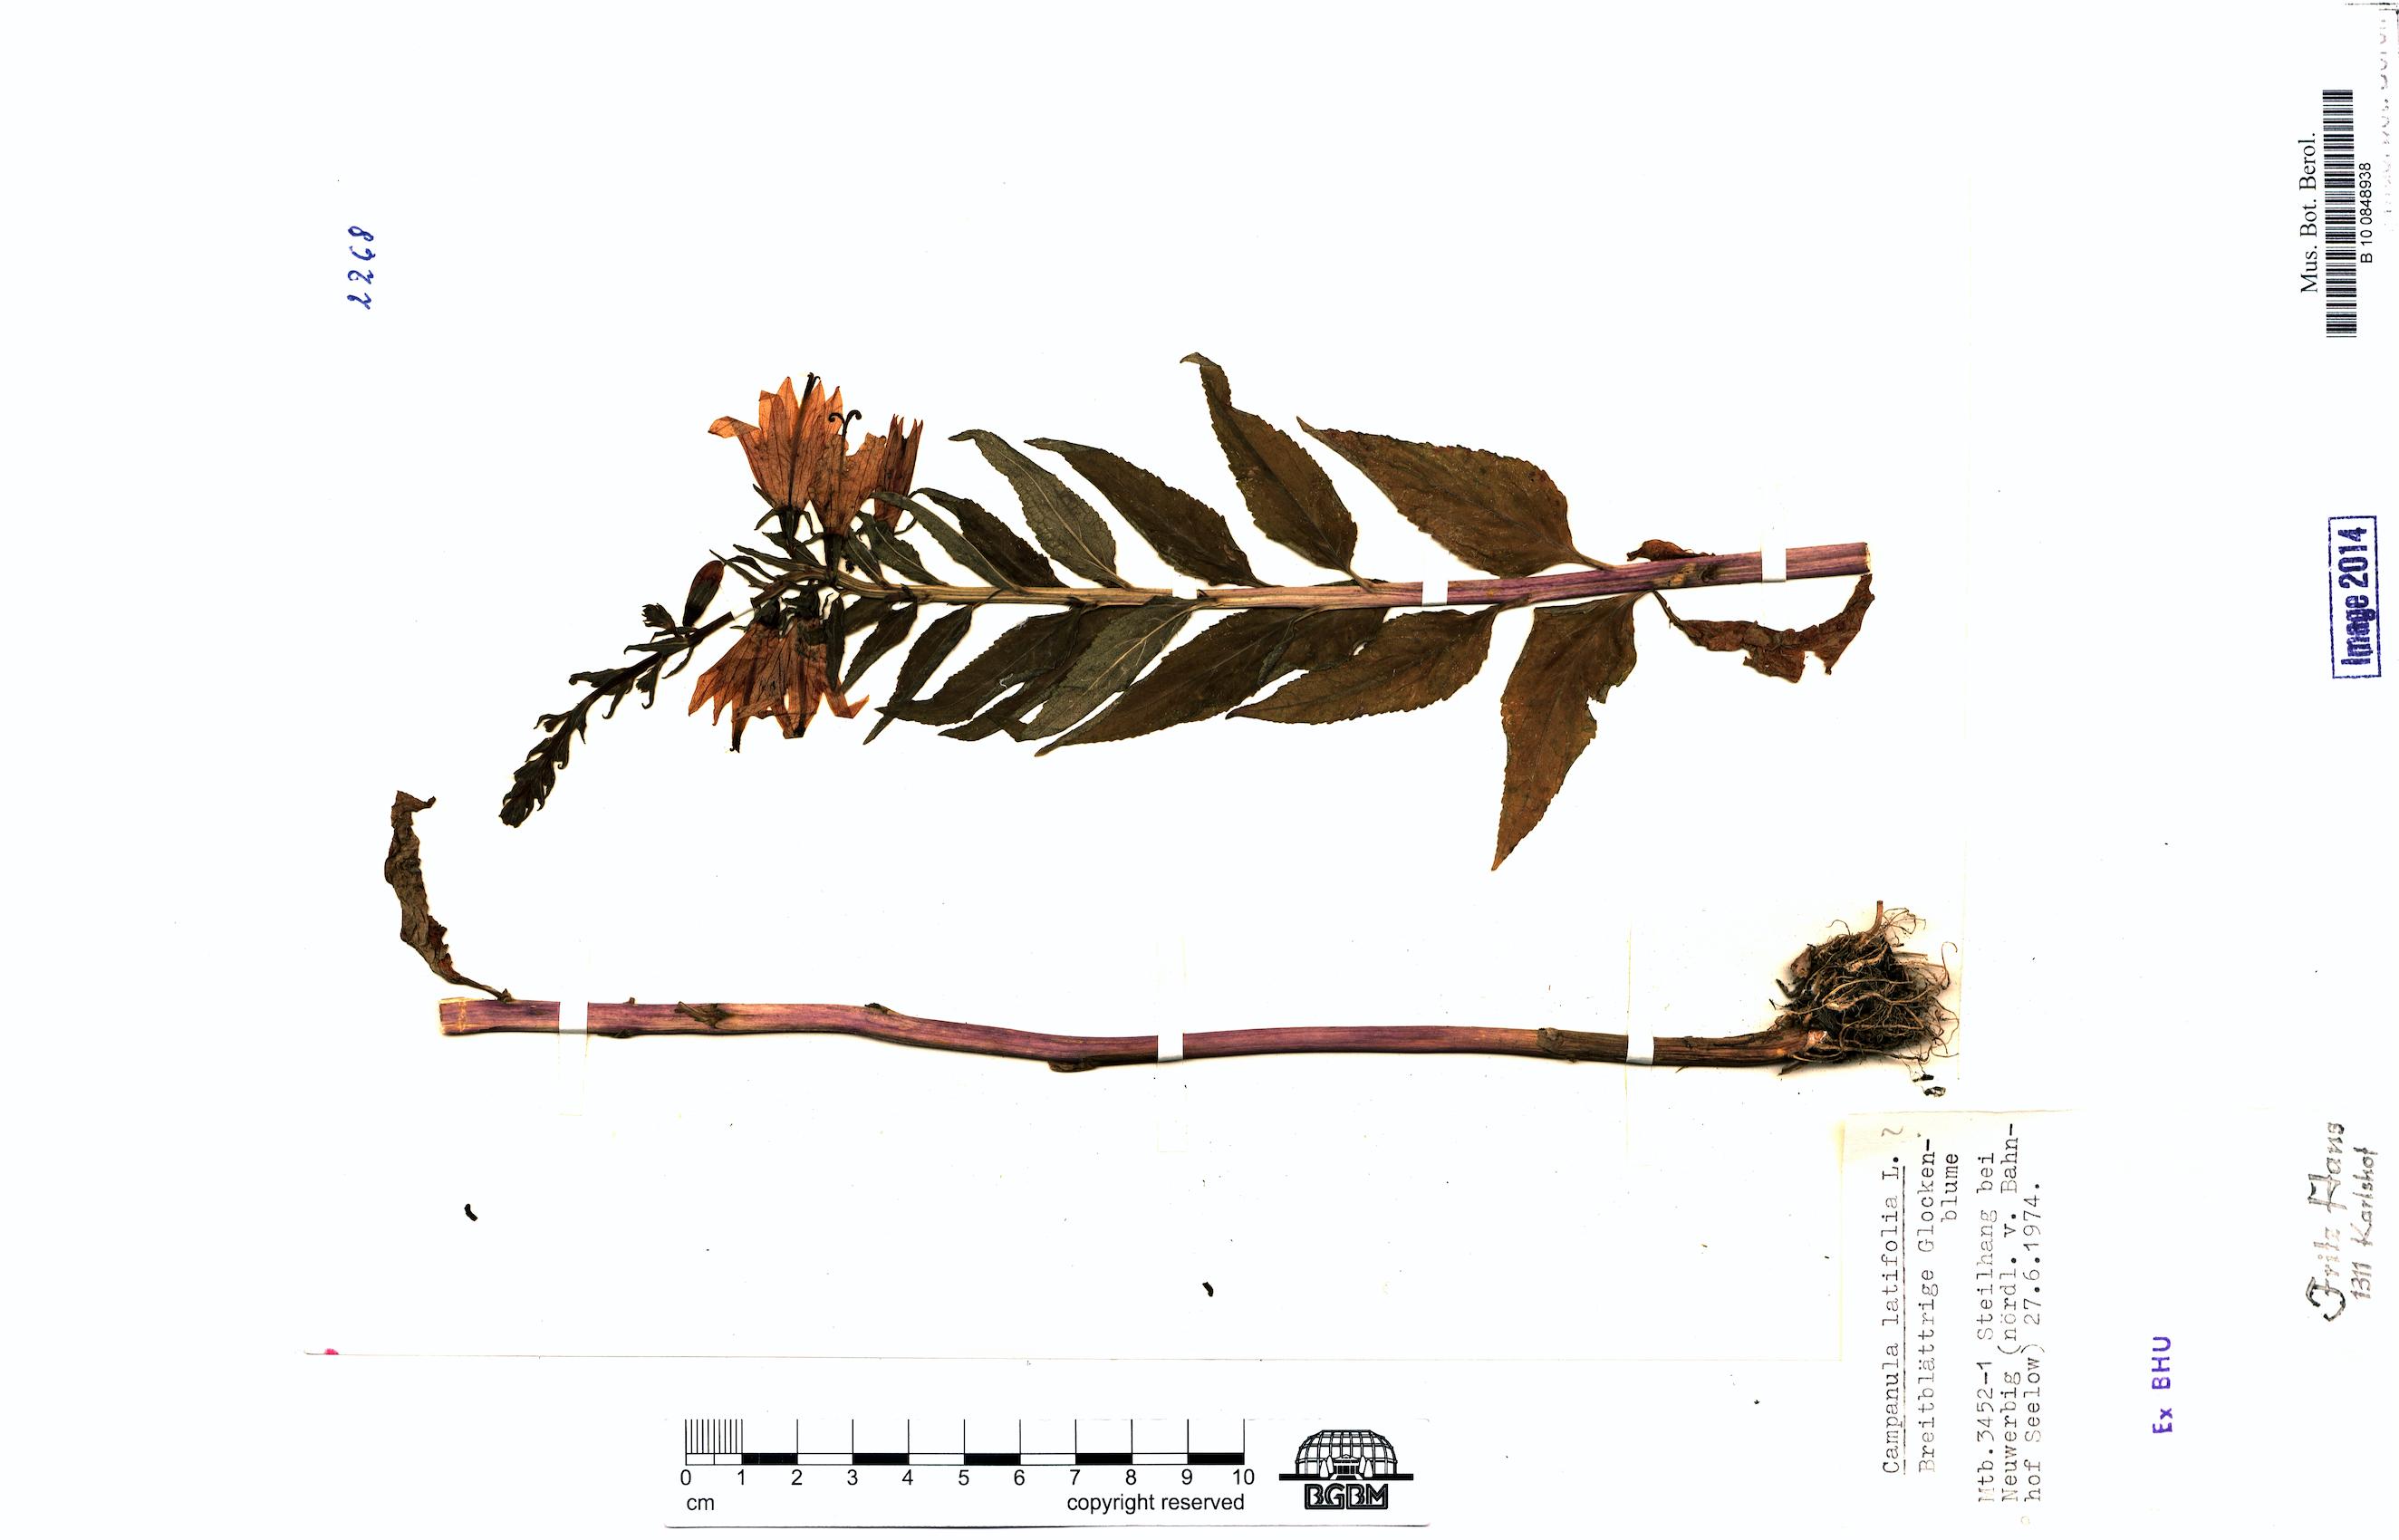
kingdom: Plantae
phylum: Tracheophyta
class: Magnoliopsida
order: Asterales
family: Campanulaceae
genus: Campanula
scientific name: Campanula latifolia
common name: Giant bellflower
